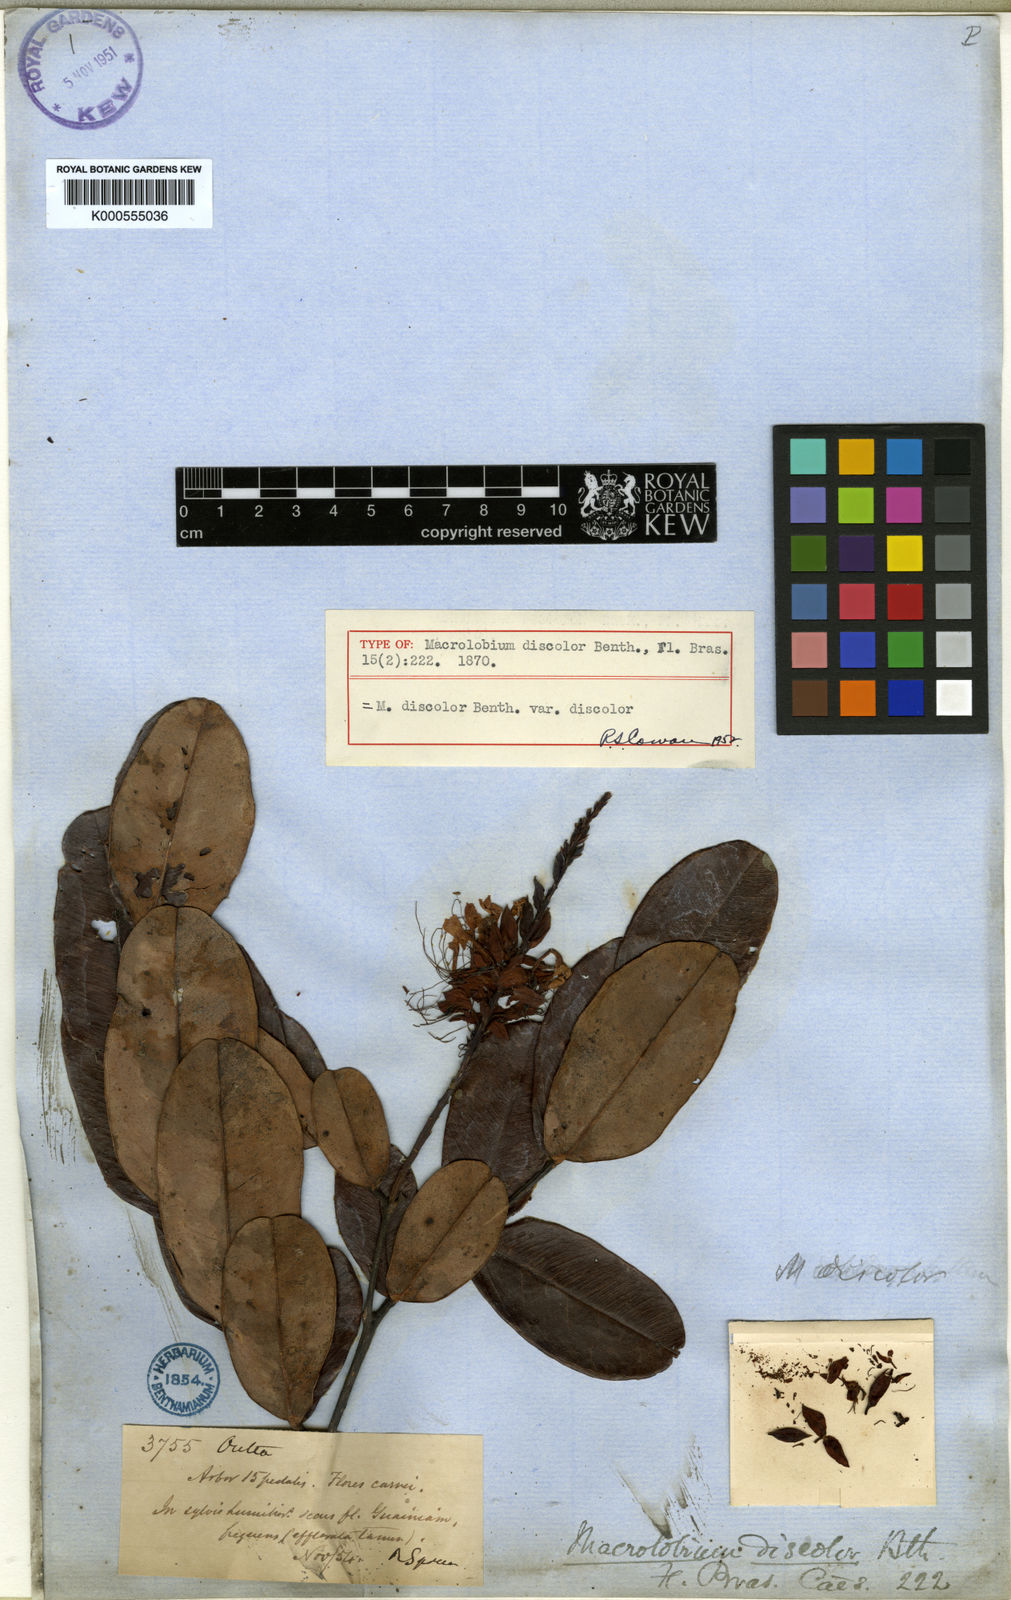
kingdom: Plantae
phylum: Tracheophyta
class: Magnoliopsida
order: Fabales
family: Fabaceae
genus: Macrolobium
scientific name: Macrolobium discolor
